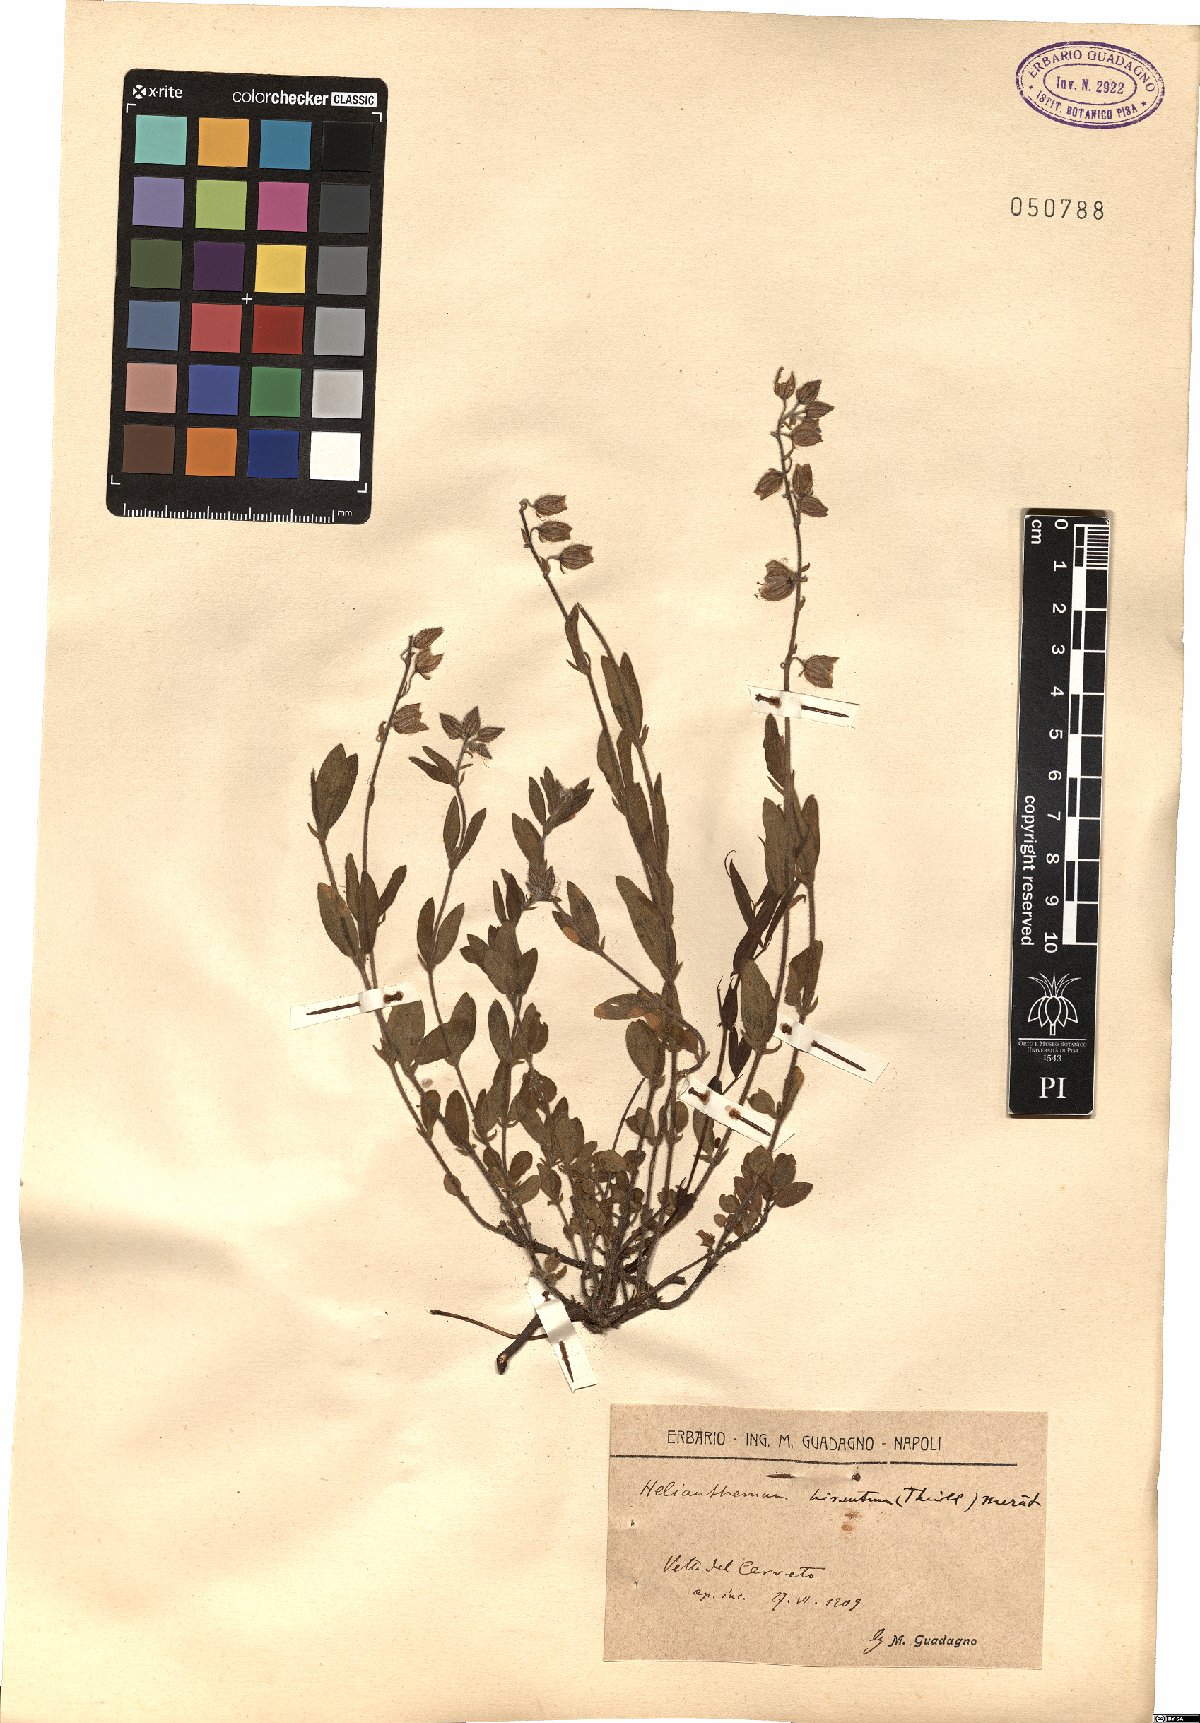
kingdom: Plantae
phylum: Tracheophyta
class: Magnoliopsida
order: Malvales
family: Cistaceae
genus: Helianthemum
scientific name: Helianthemum nummularium
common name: Common rock-rose
